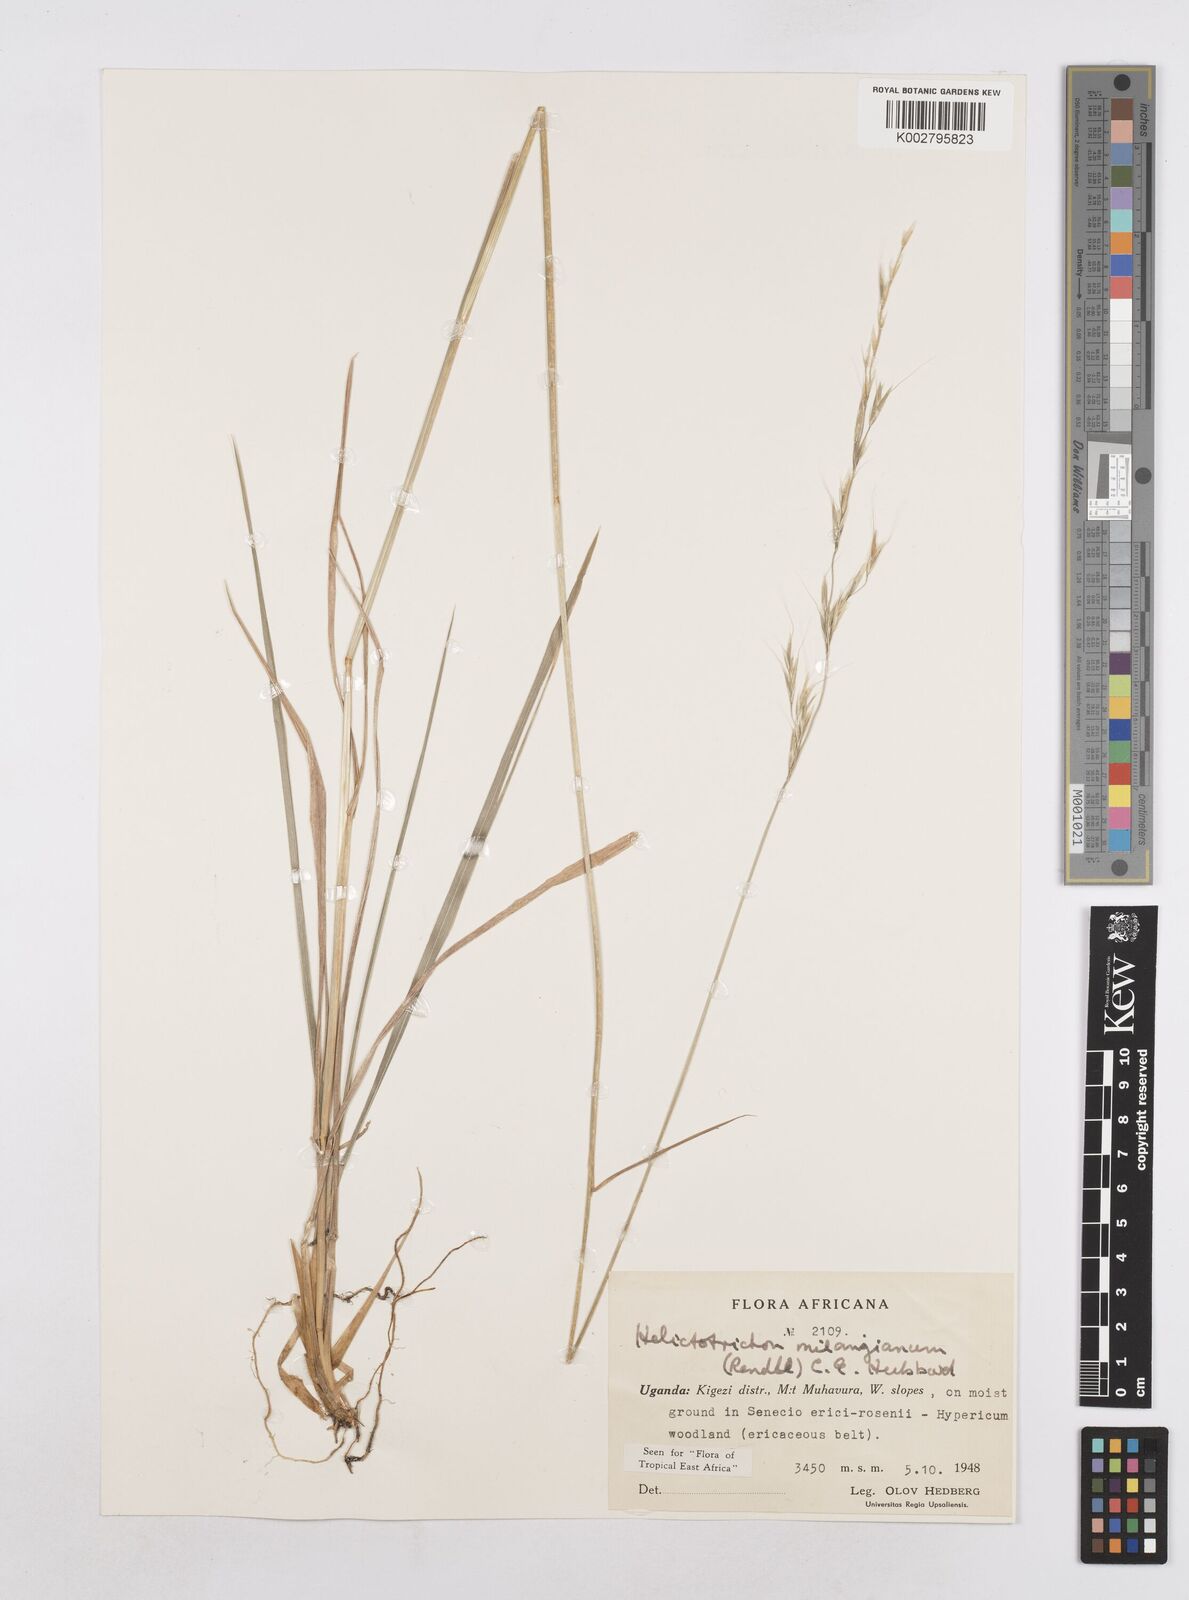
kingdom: Plantae
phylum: Tracheophyta
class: Liliopsida
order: Poales
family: Poaceae
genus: Trisetopsis
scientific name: Trisetopsis milanjiana
